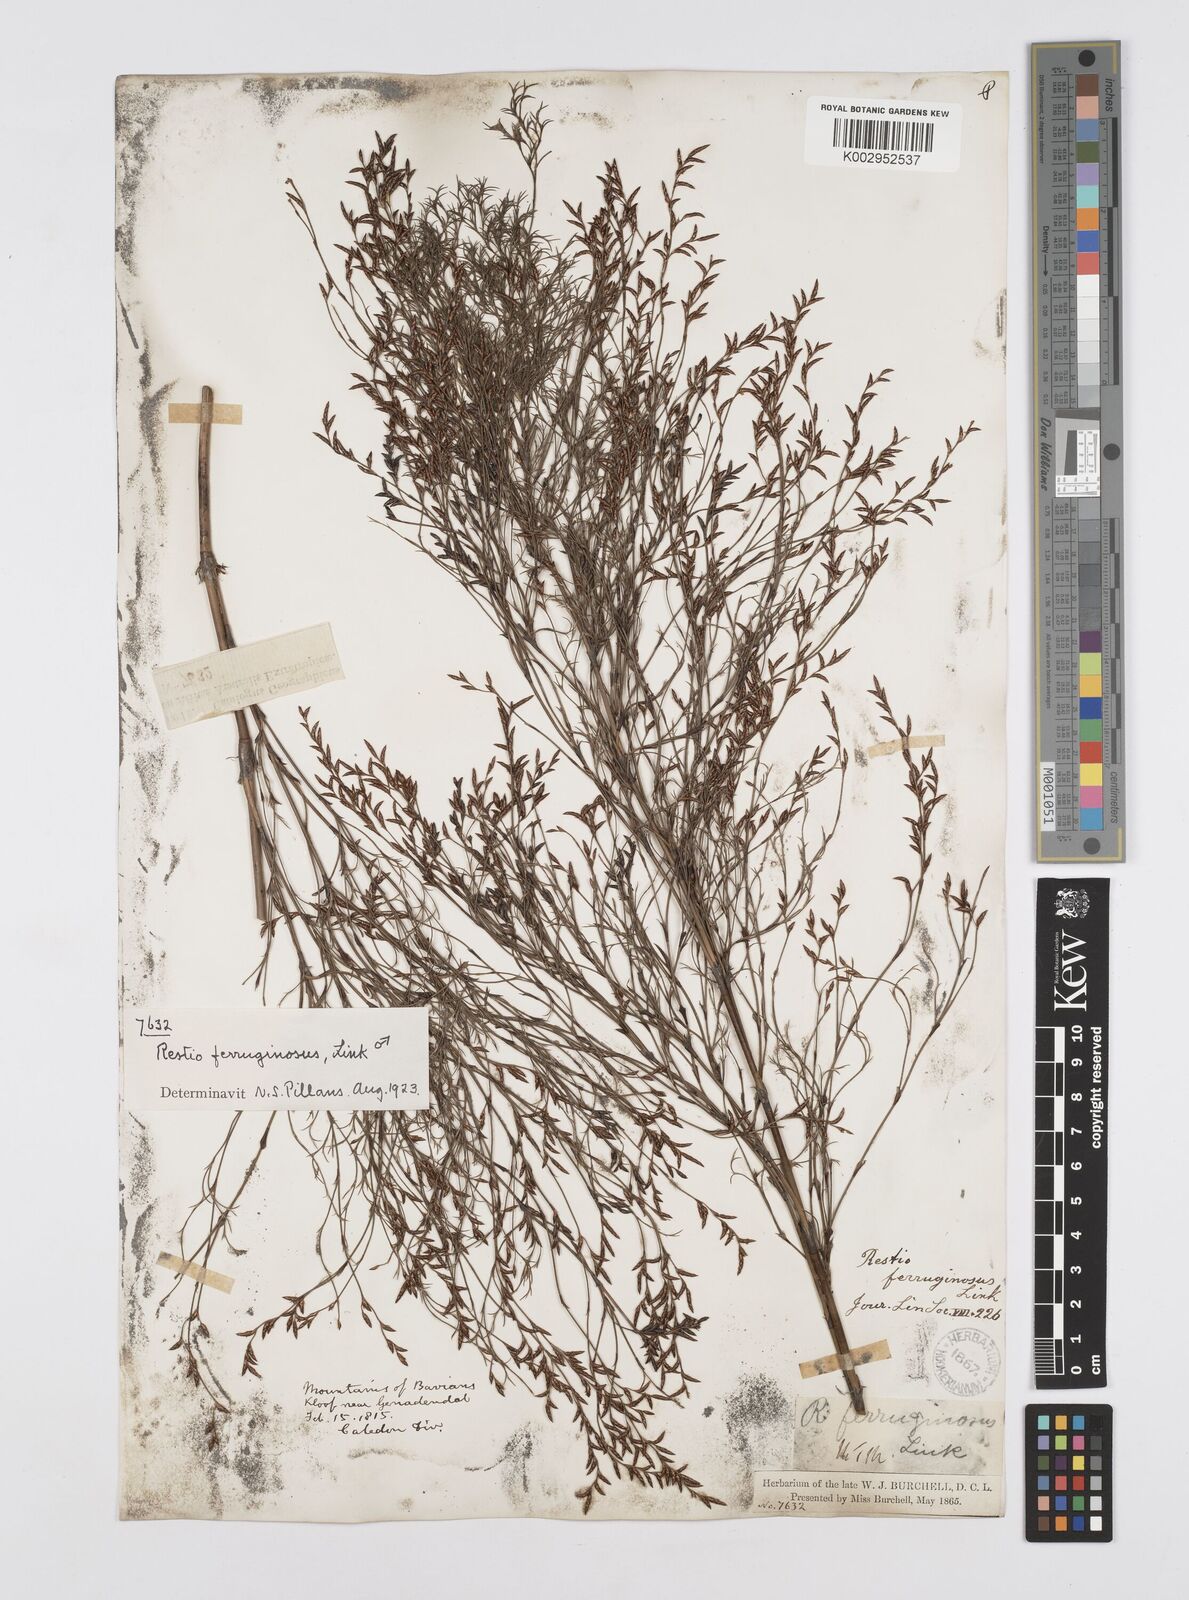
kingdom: Plantae
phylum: Tracheophyta
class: Liliopsida
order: Poales
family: Restionaceae
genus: Restio
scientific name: Restio gaudichaudianus
